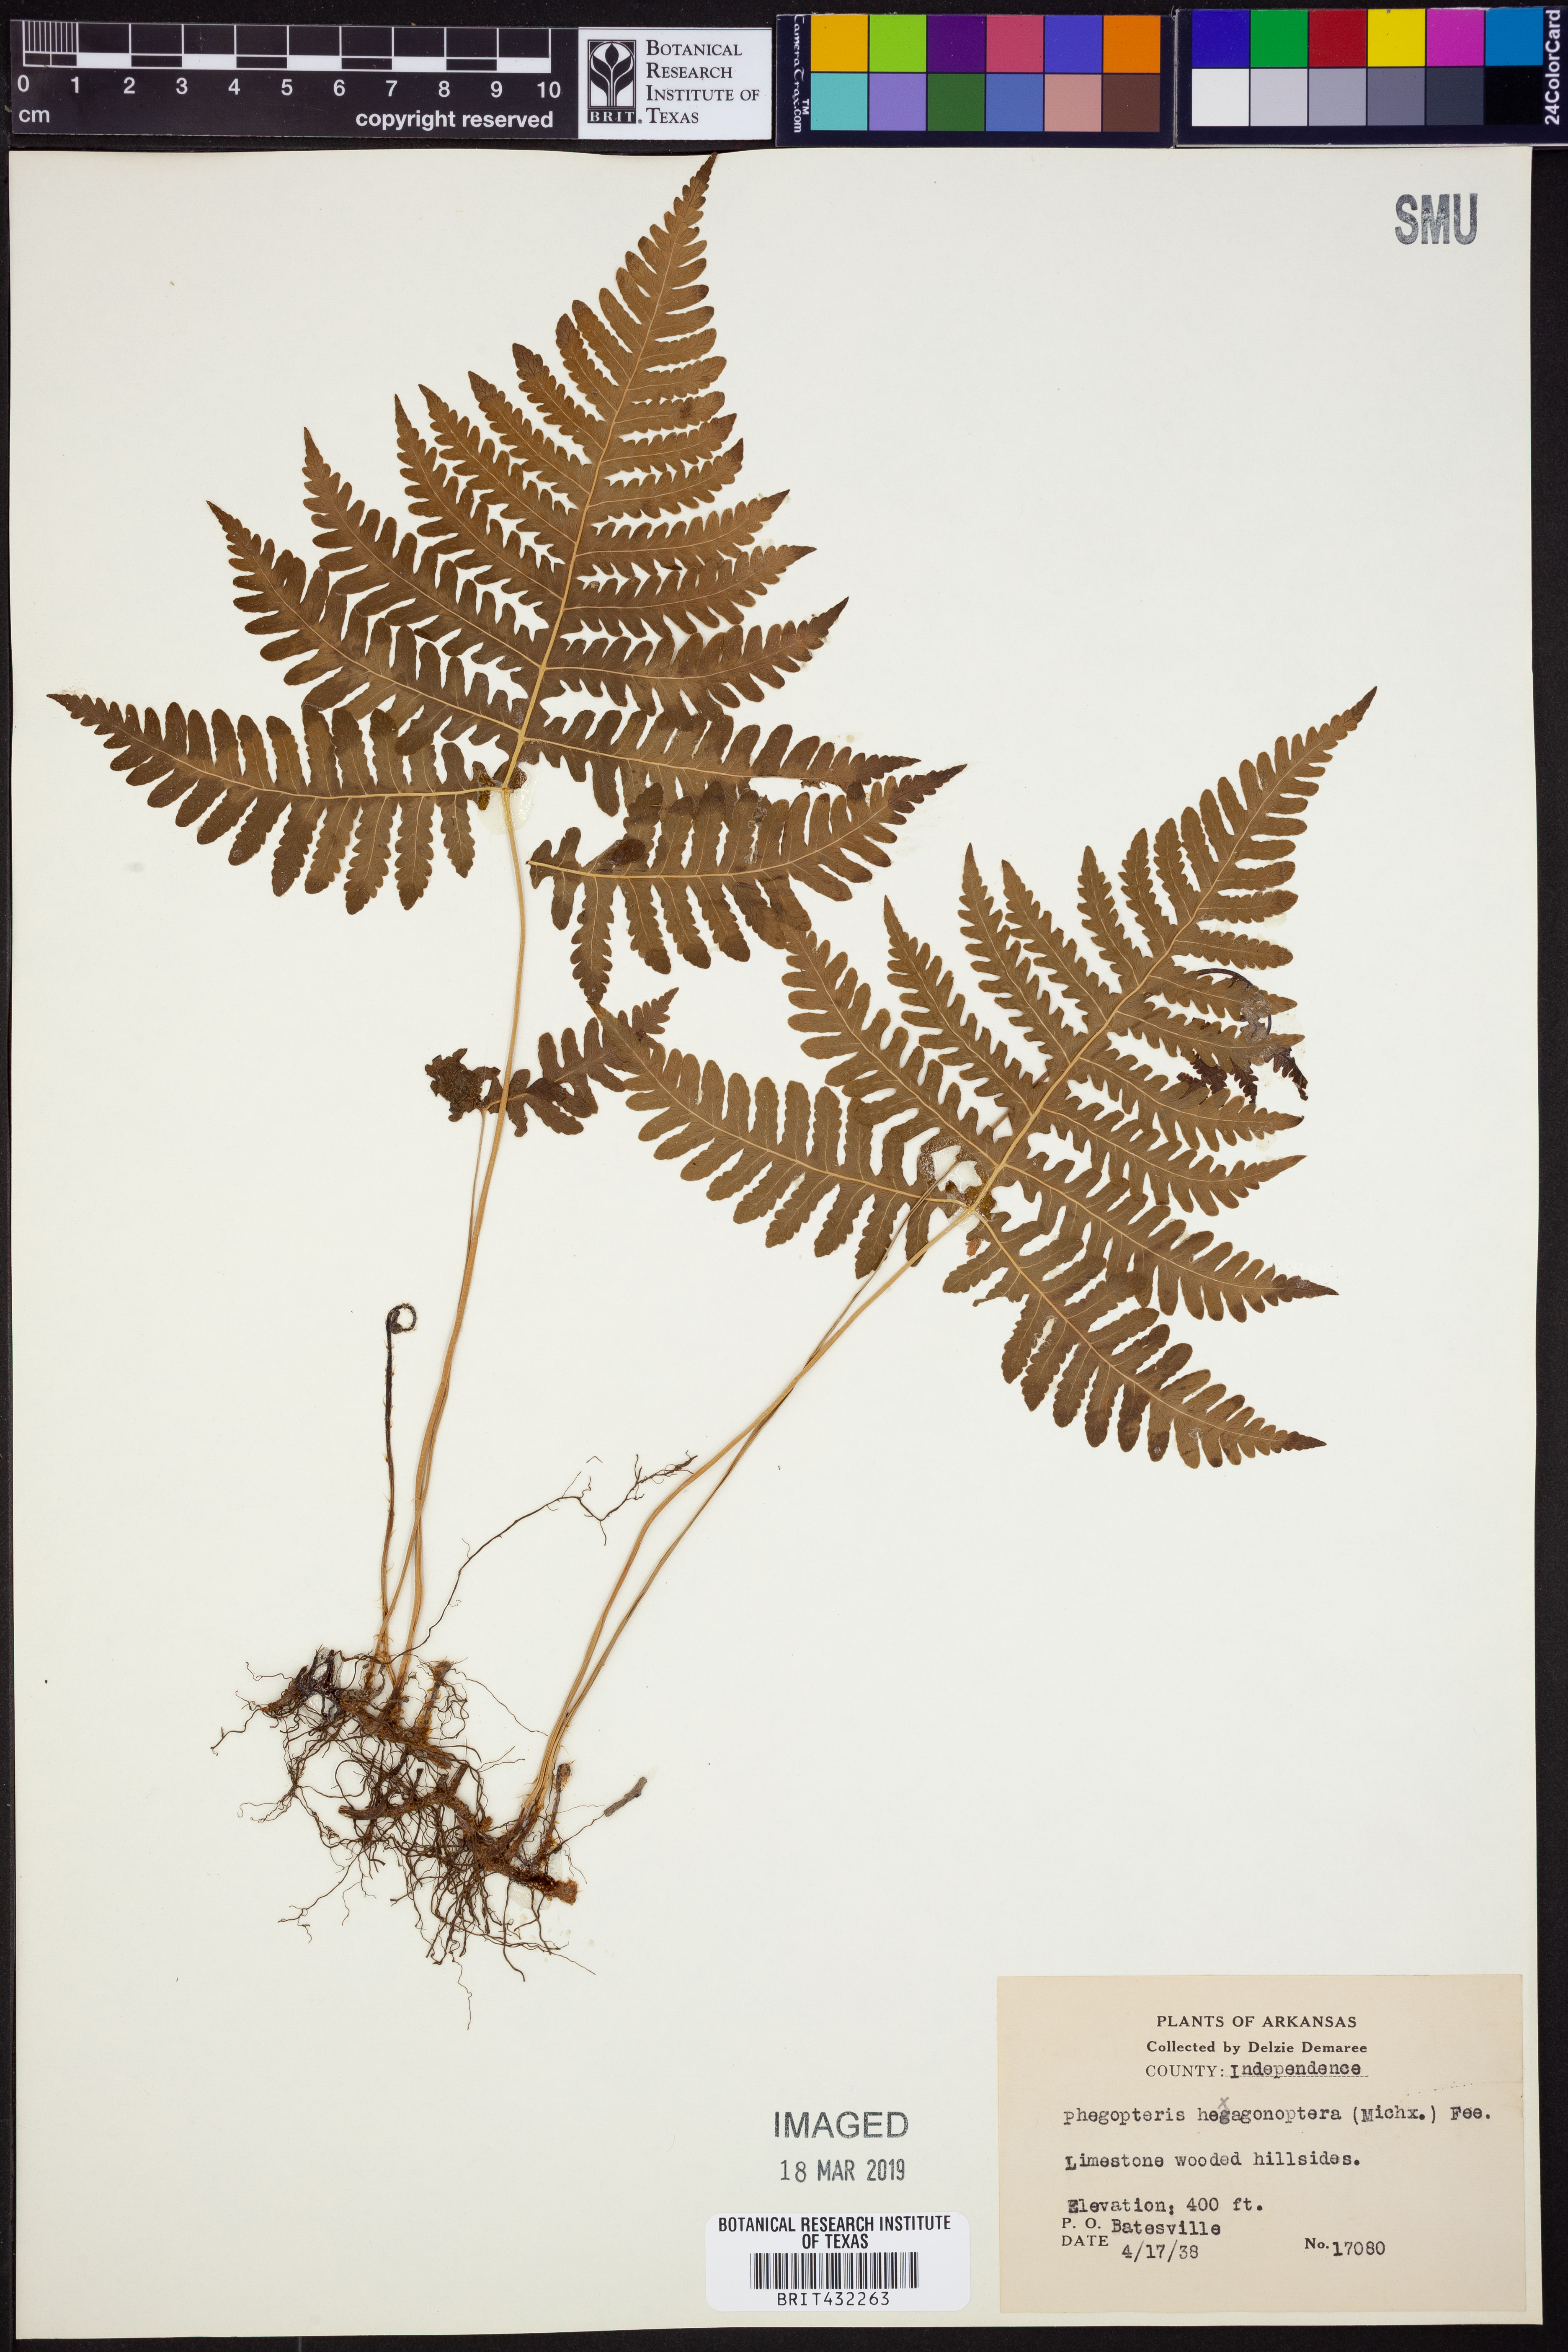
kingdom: Plantae
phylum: Tracheophyta
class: Polypodiopsida
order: Polypodiales
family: Thelypteridaceae
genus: Phegopteris
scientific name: Phegopteris hexagonoptera
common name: Broad beech fern
